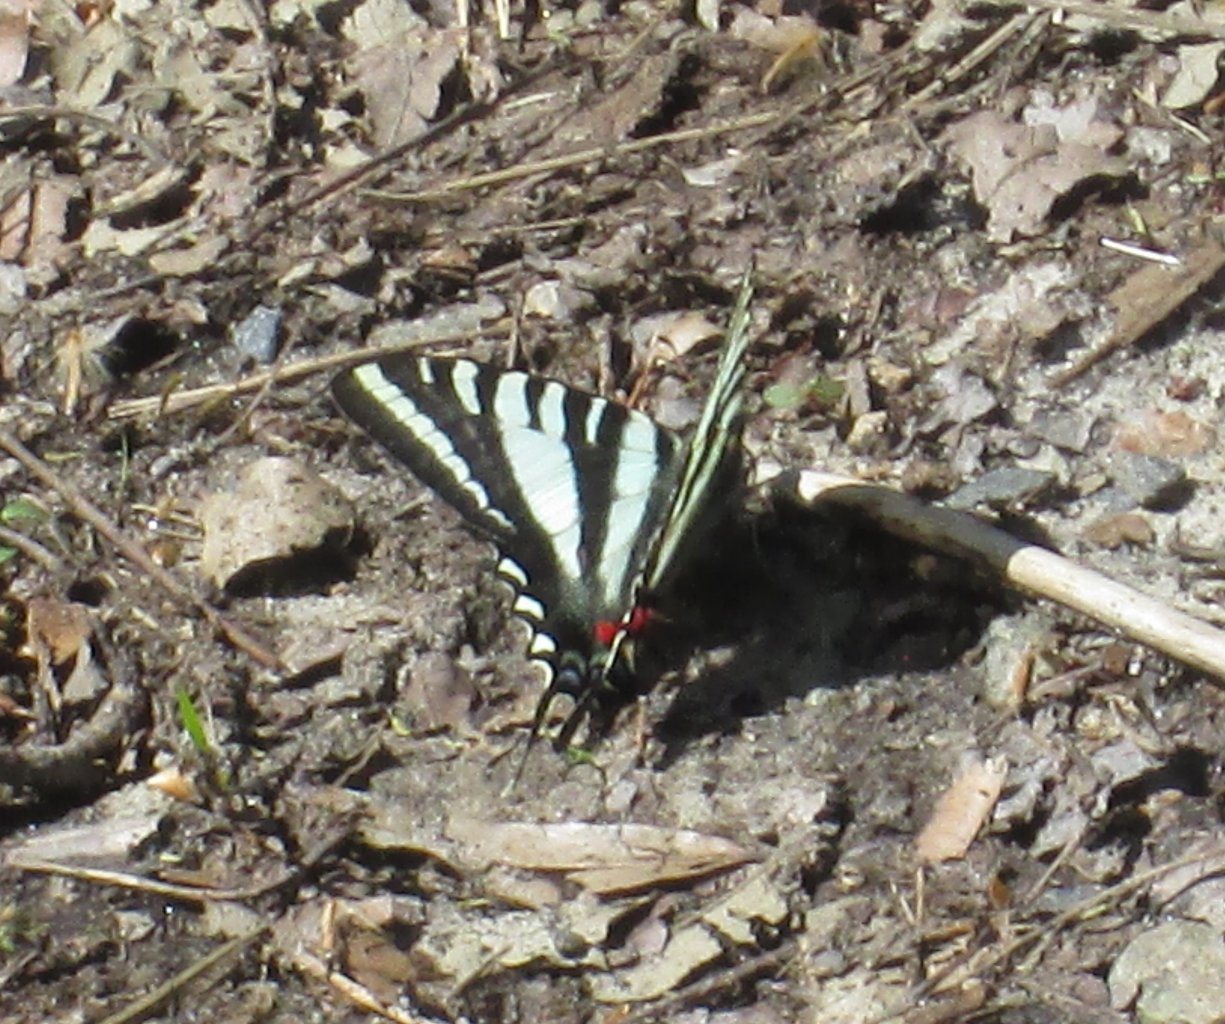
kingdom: Animalia
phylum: Arthropoda
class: Insecta
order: Lepidoptera
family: Papilionidae
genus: Protographium
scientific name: Protographium marcellus
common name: Zebra Swallowtail
